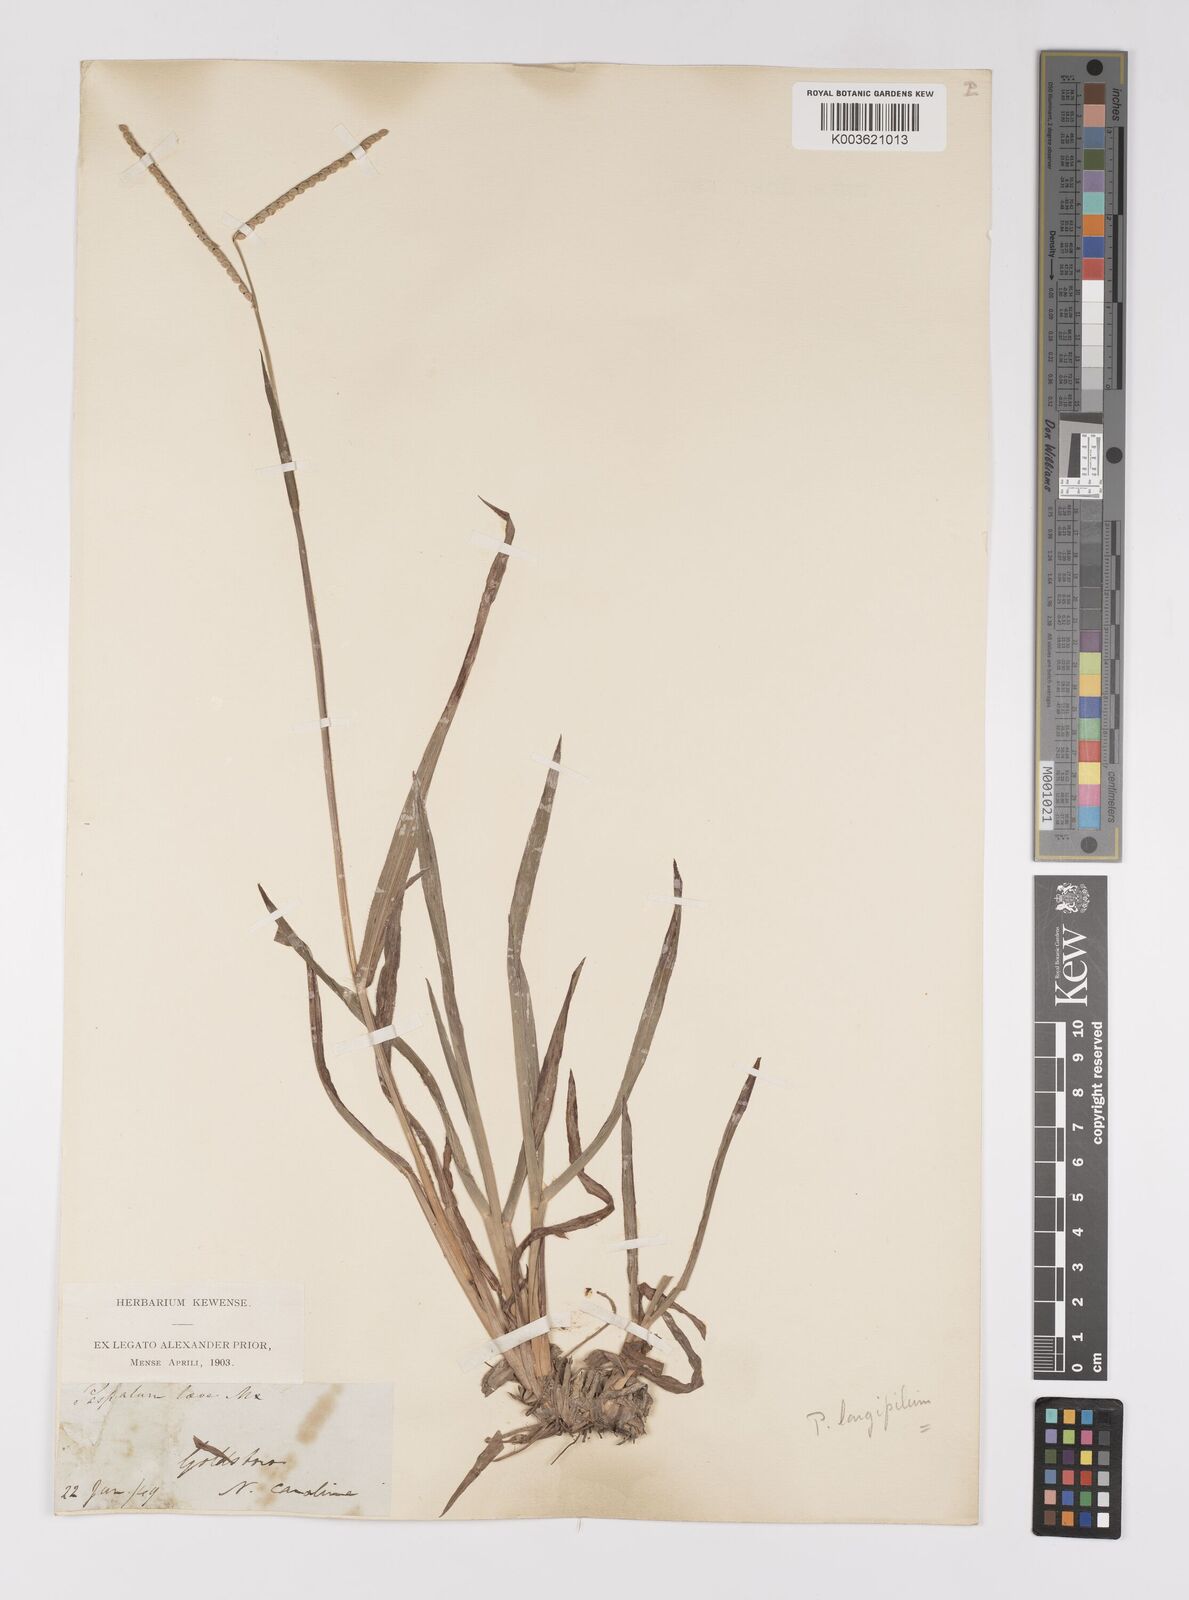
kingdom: Plantae
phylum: Tracheophyta
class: Liliopsida
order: Poales
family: Poaceae
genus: Paspalum
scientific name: Paspalum laeve
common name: Field paspalum
